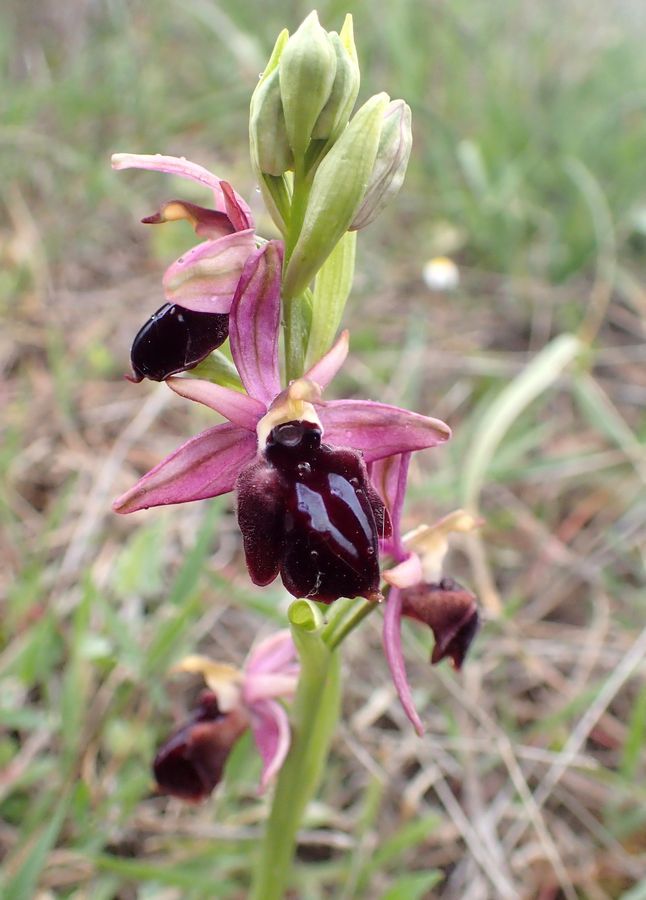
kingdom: Plantae
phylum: Tracheophyta
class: Liliopsida
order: Asparagales
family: Orchidaceae
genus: Ophrys
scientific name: Ophrys sphegodes
